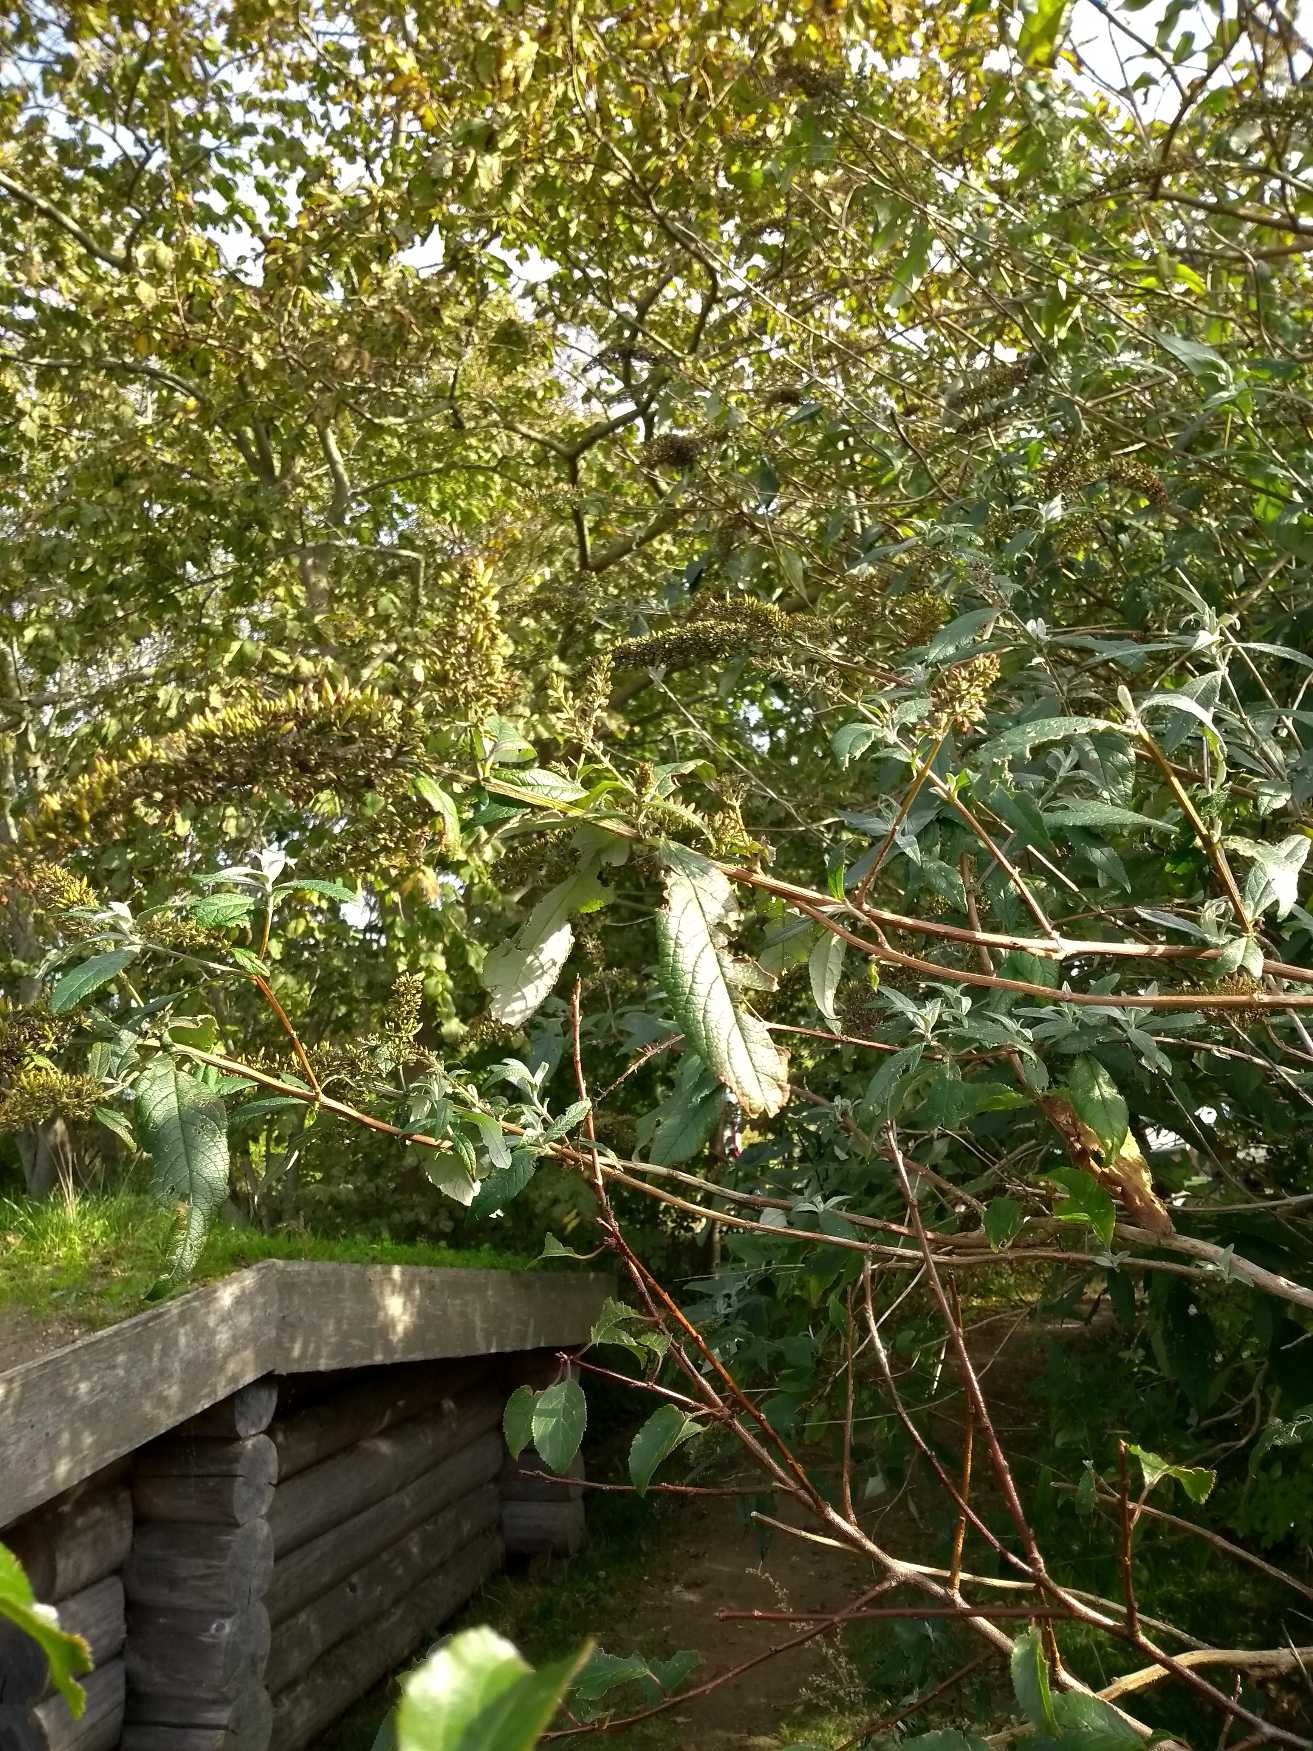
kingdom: Plantae
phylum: Tracheophyta
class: Magnoliopsida
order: Lamiales
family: Scrophulariaceae
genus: Buddleja
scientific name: Buddleja davidii
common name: Sommerfuglebusk
